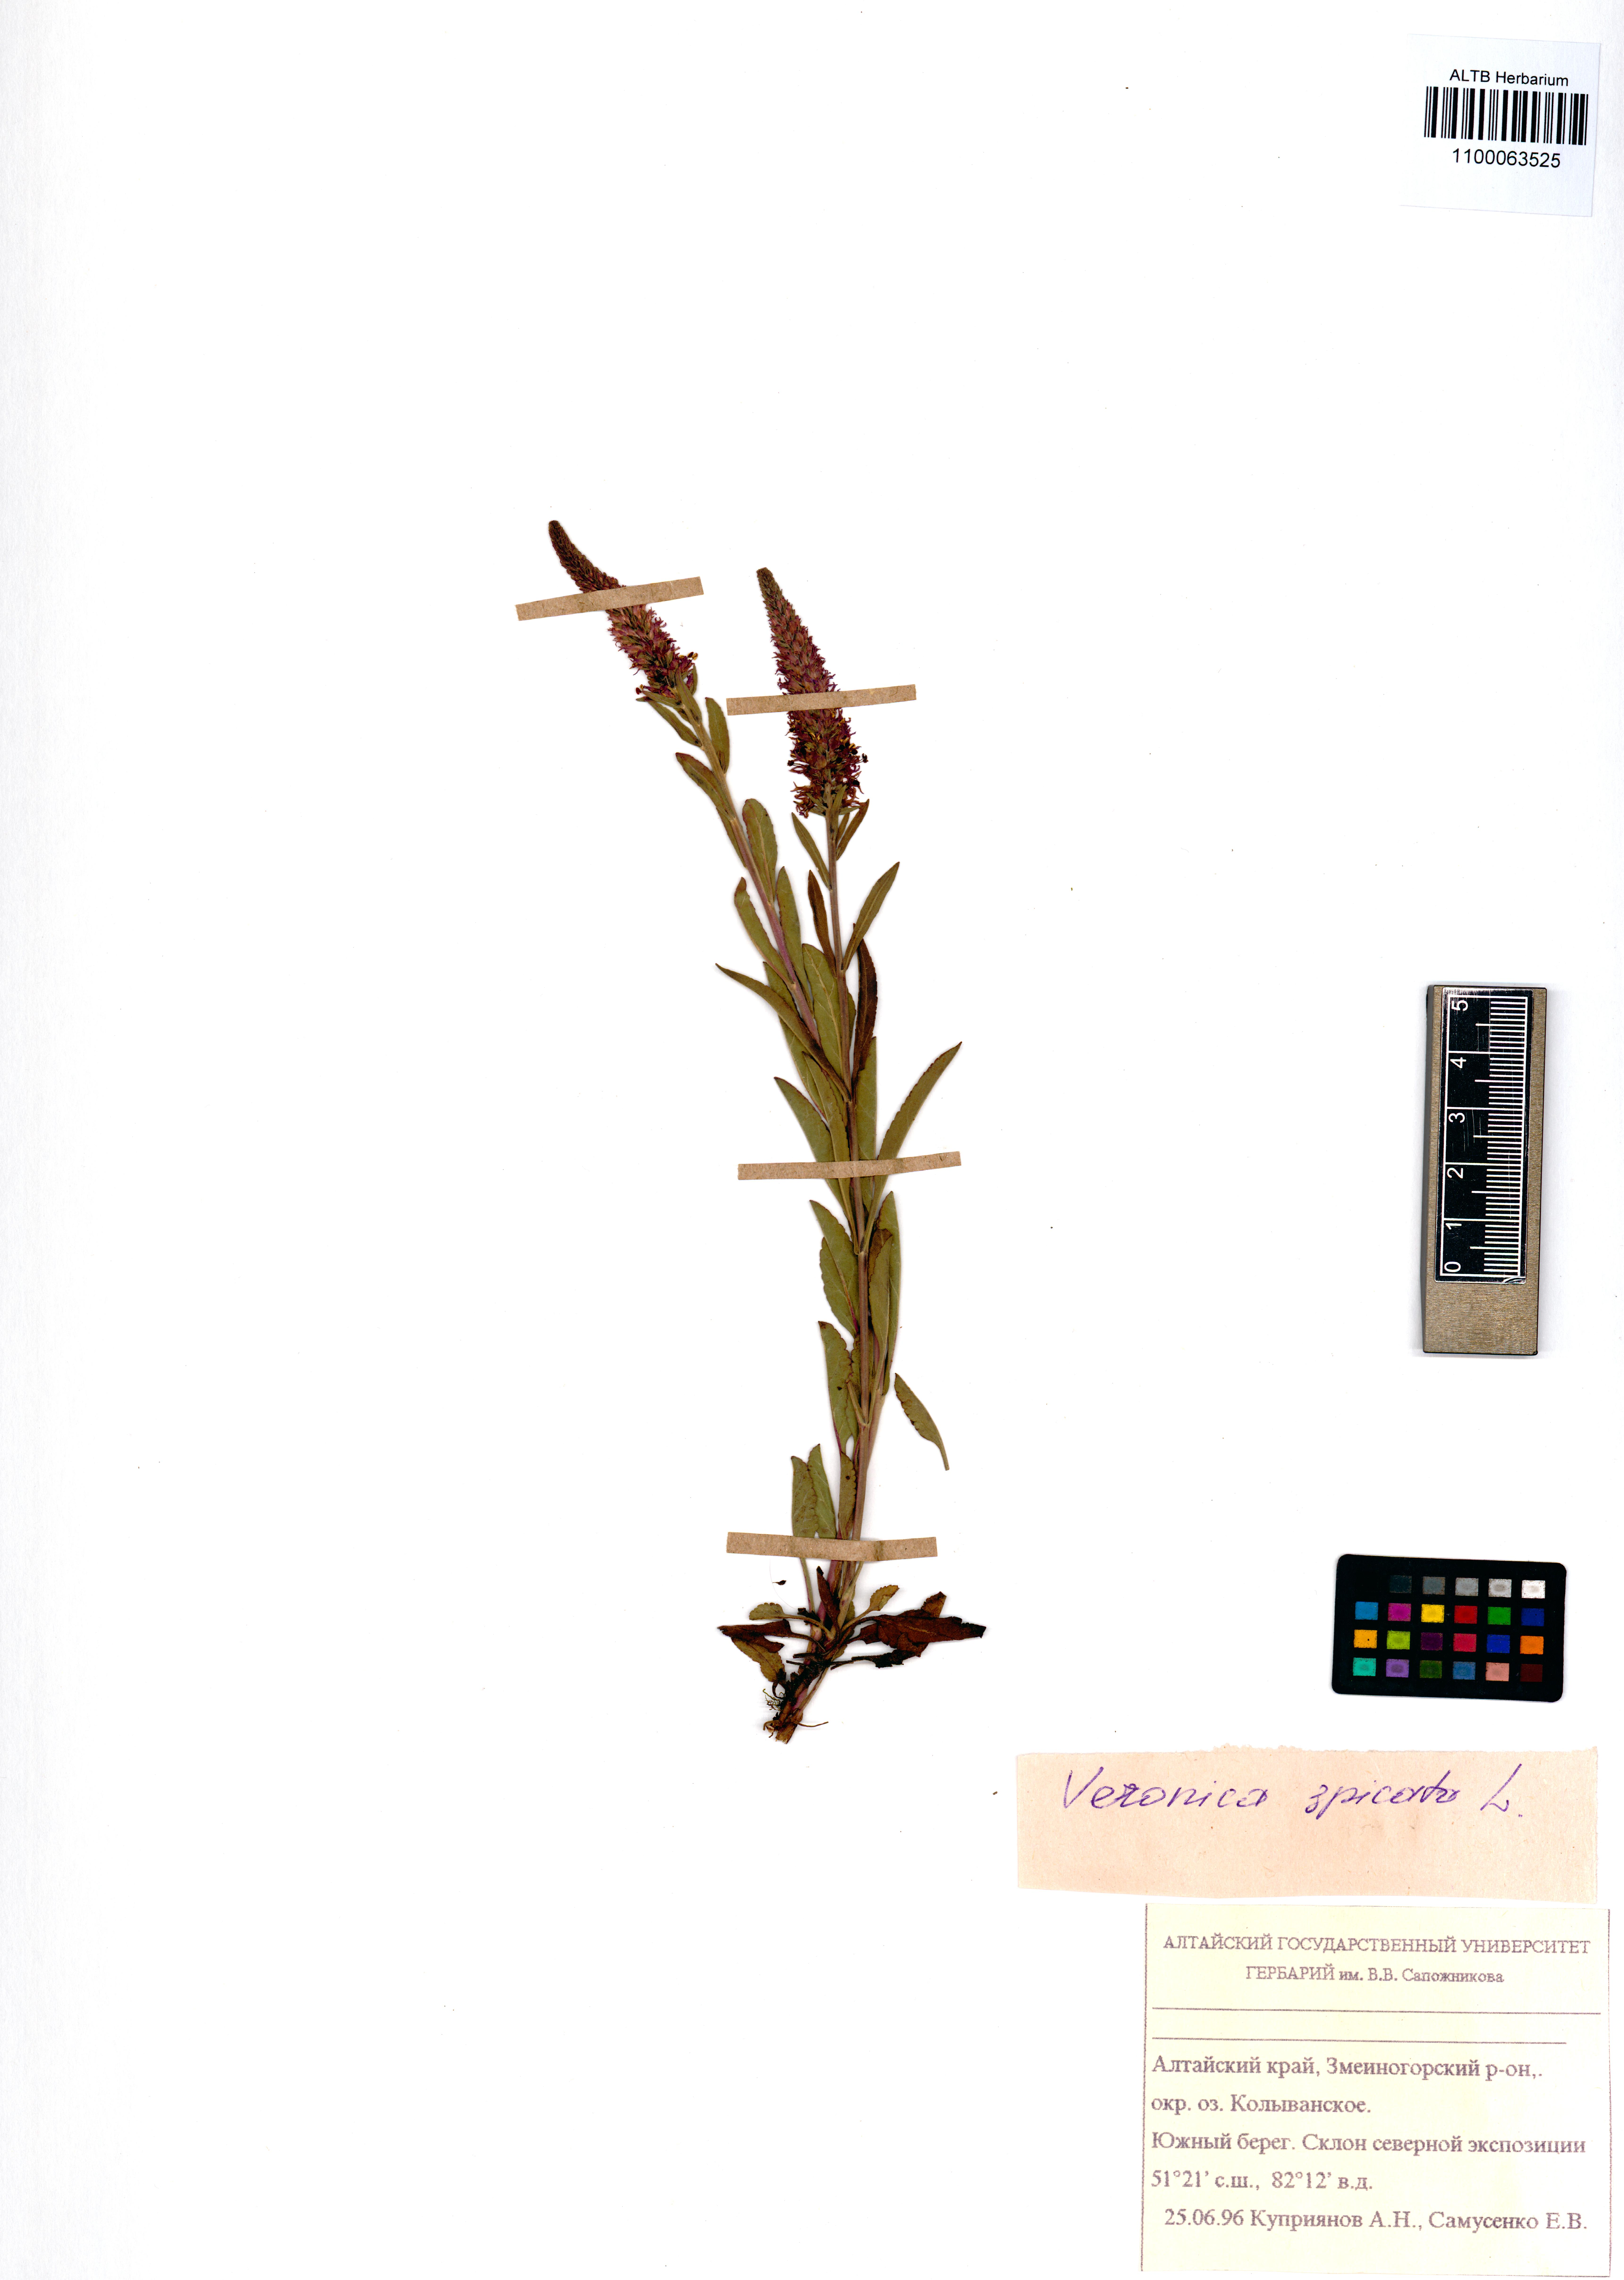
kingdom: Plantae
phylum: Tracheophyta
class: Magnoliopsida
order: Lamiales
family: Plantaginaceae
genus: Veronica
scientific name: Veronica spicata
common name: Spiked speedwell
